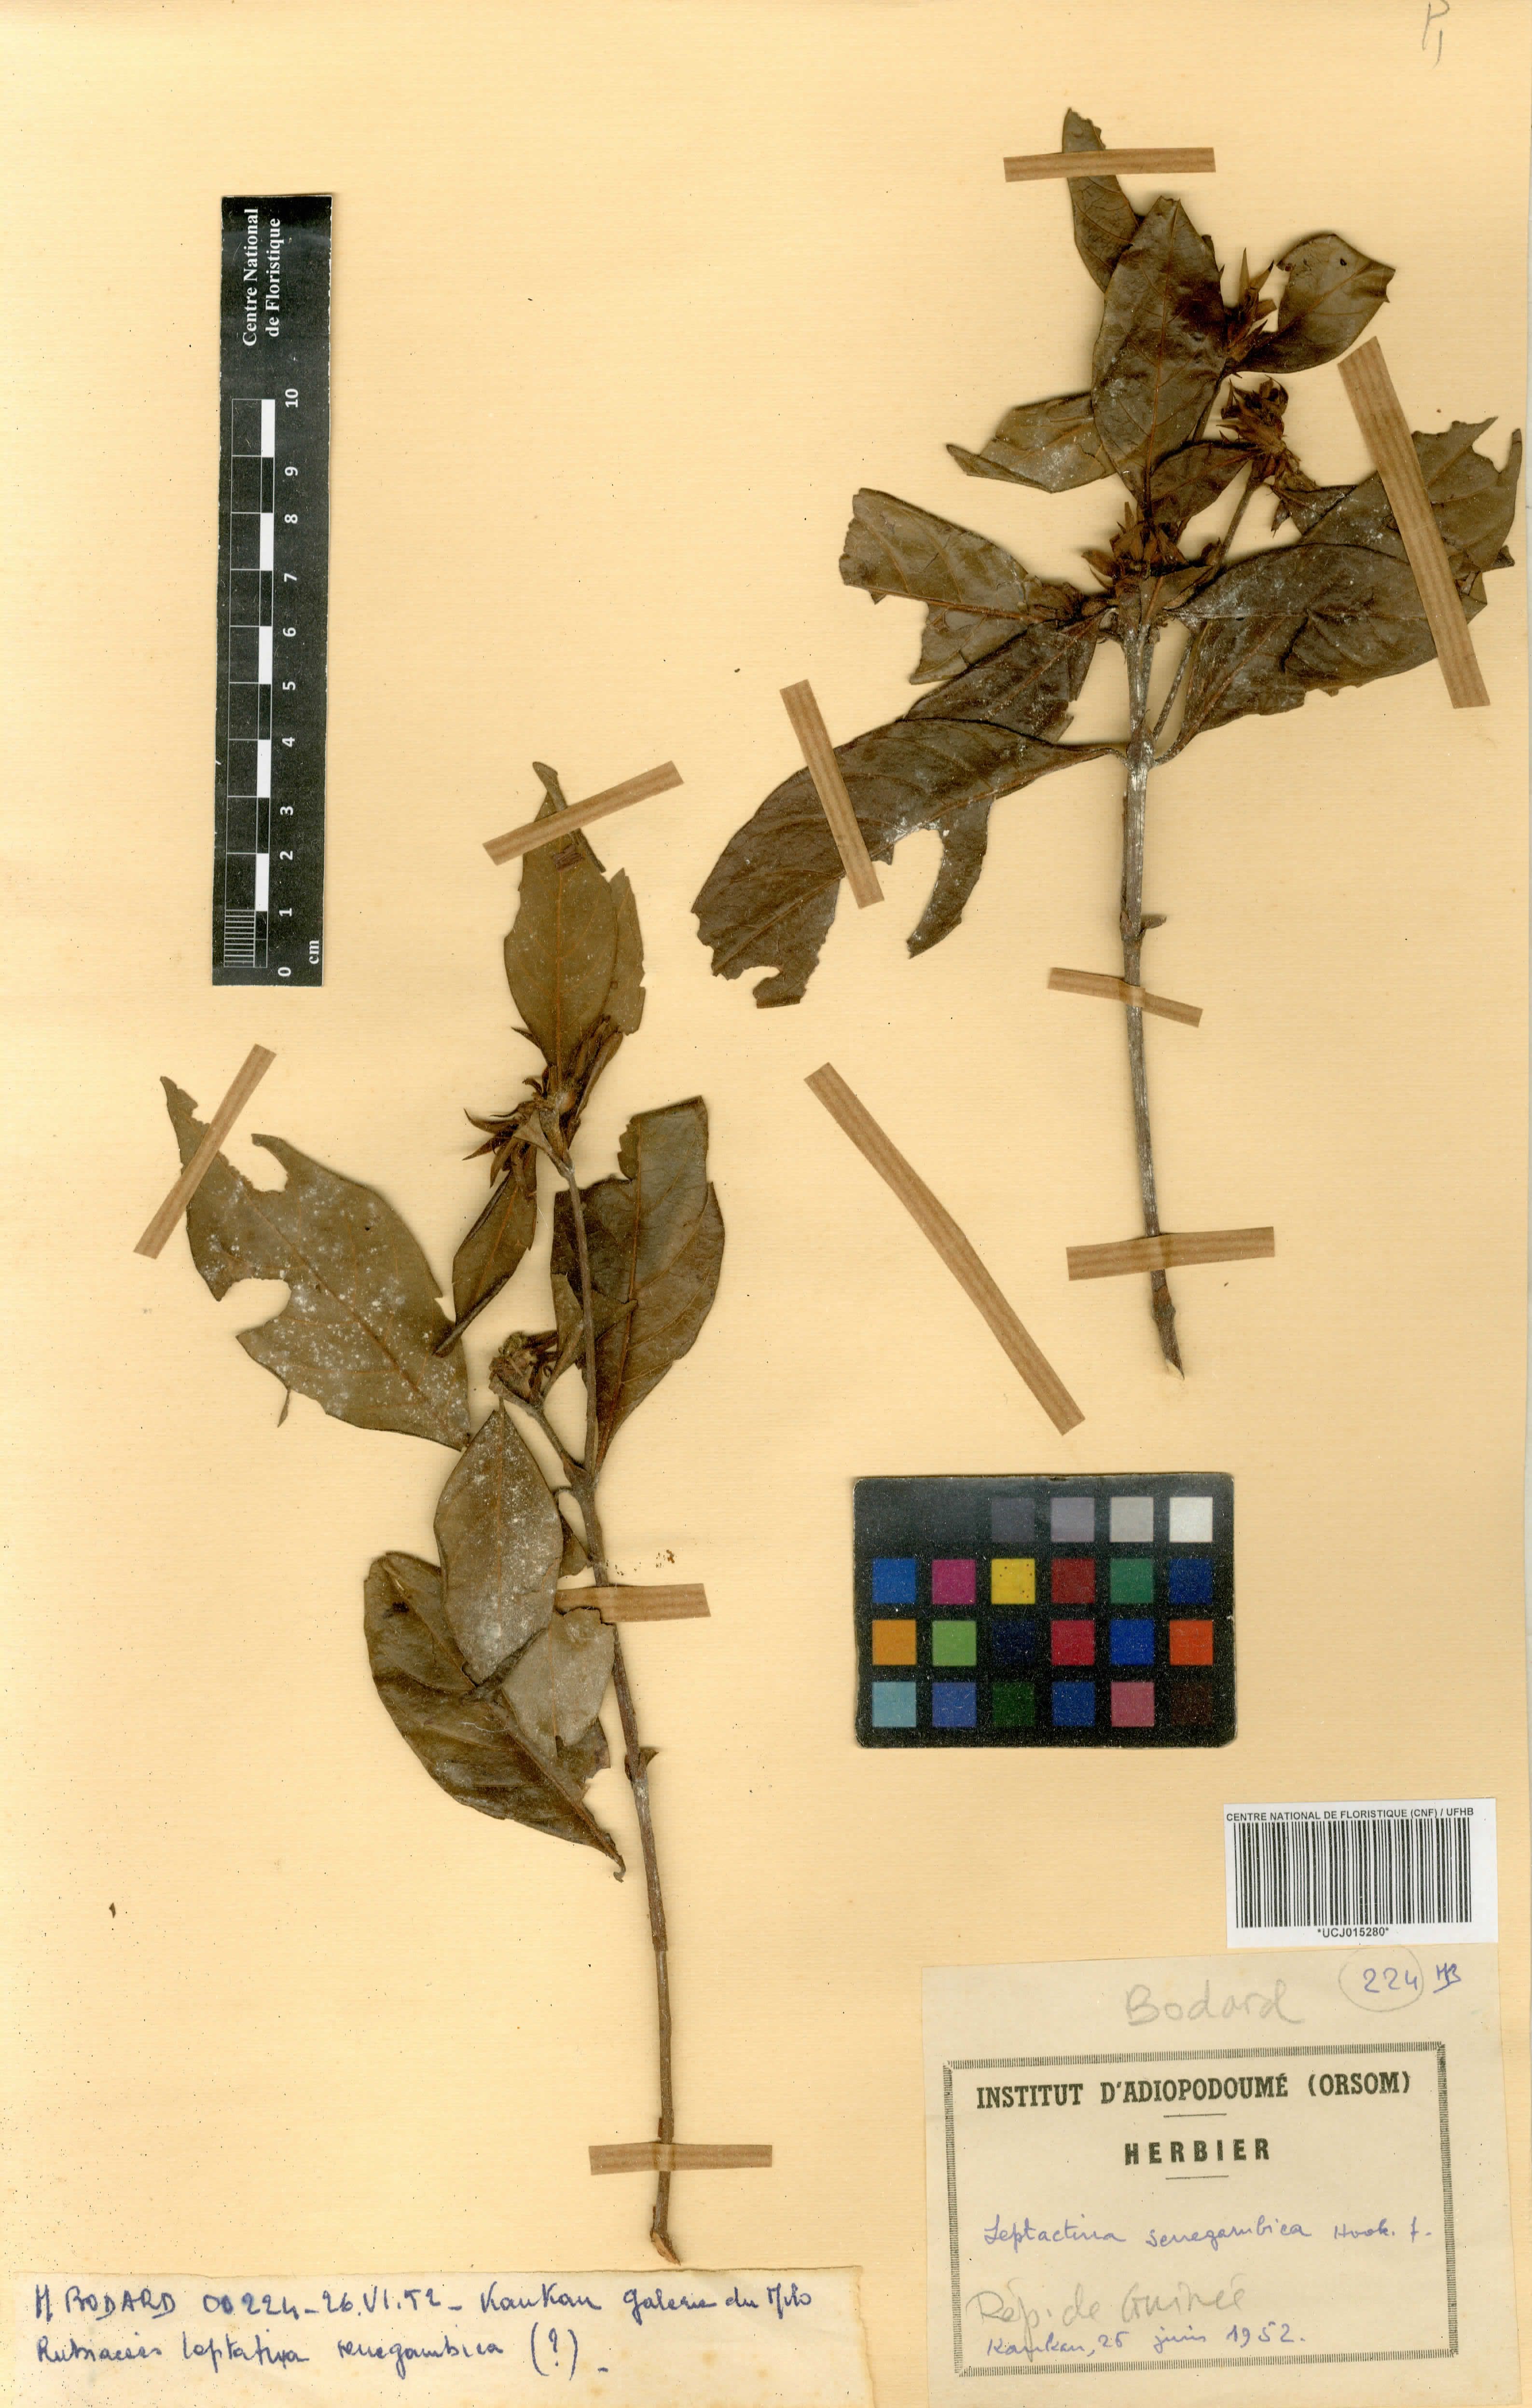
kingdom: Plantae
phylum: Tracheophyta
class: Magnoliopsida
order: Gentianales
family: Rubiaceae
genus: Leptactina
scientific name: Leptactina senegambica
